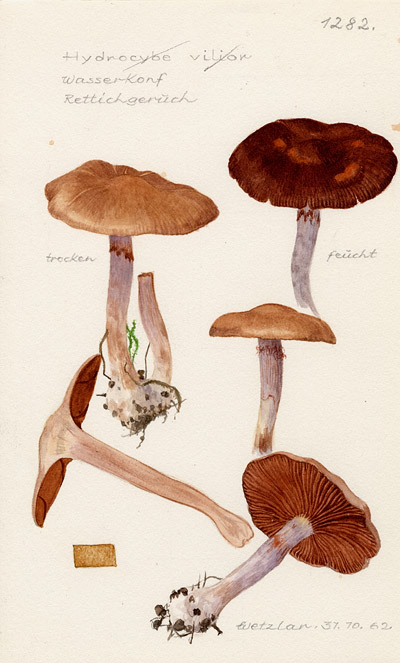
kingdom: Fungi
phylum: Basidiomycota
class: Agaricomycetes
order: Agaricales
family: Cortinariaceae
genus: Cortinarius
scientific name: Cortinarius imbutus
